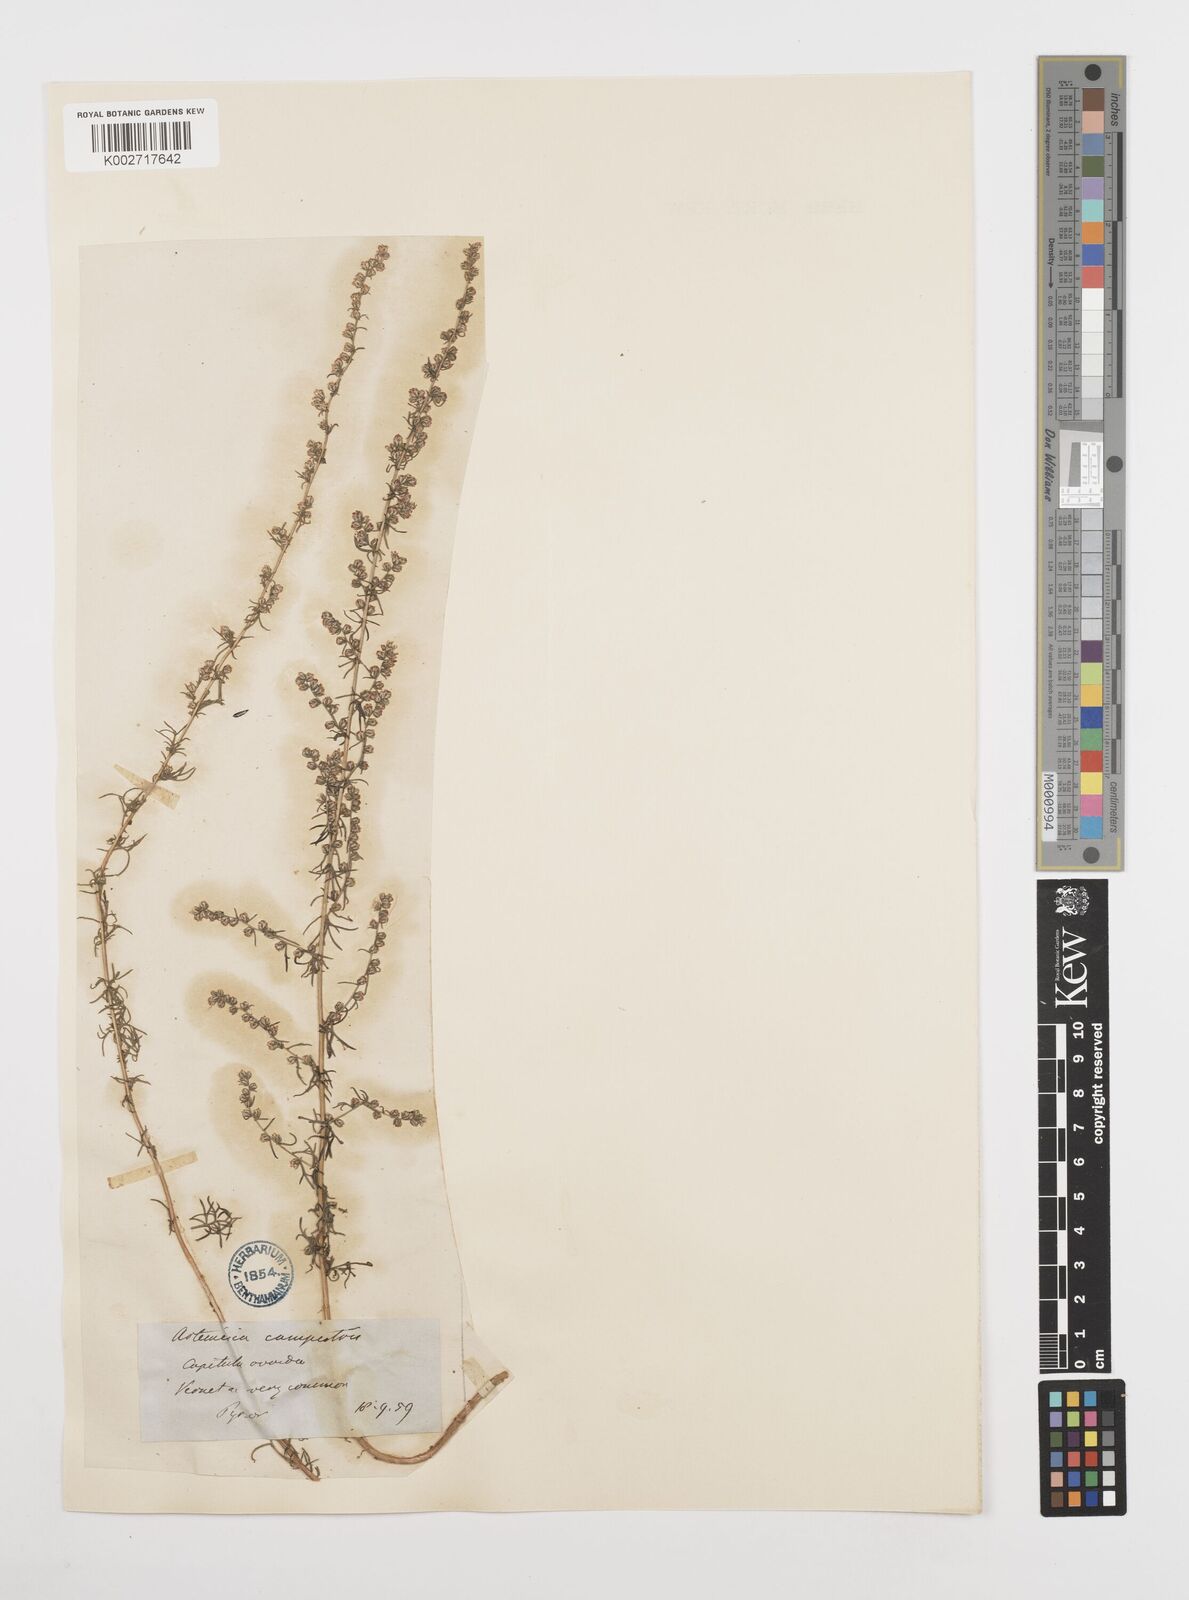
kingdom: Plantae
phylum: Tracheophyta
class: Magnoliopsida
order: Asterales
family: Asteraceae
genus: Artemisia
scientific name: Artemisia campestris
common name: Field wormwood
